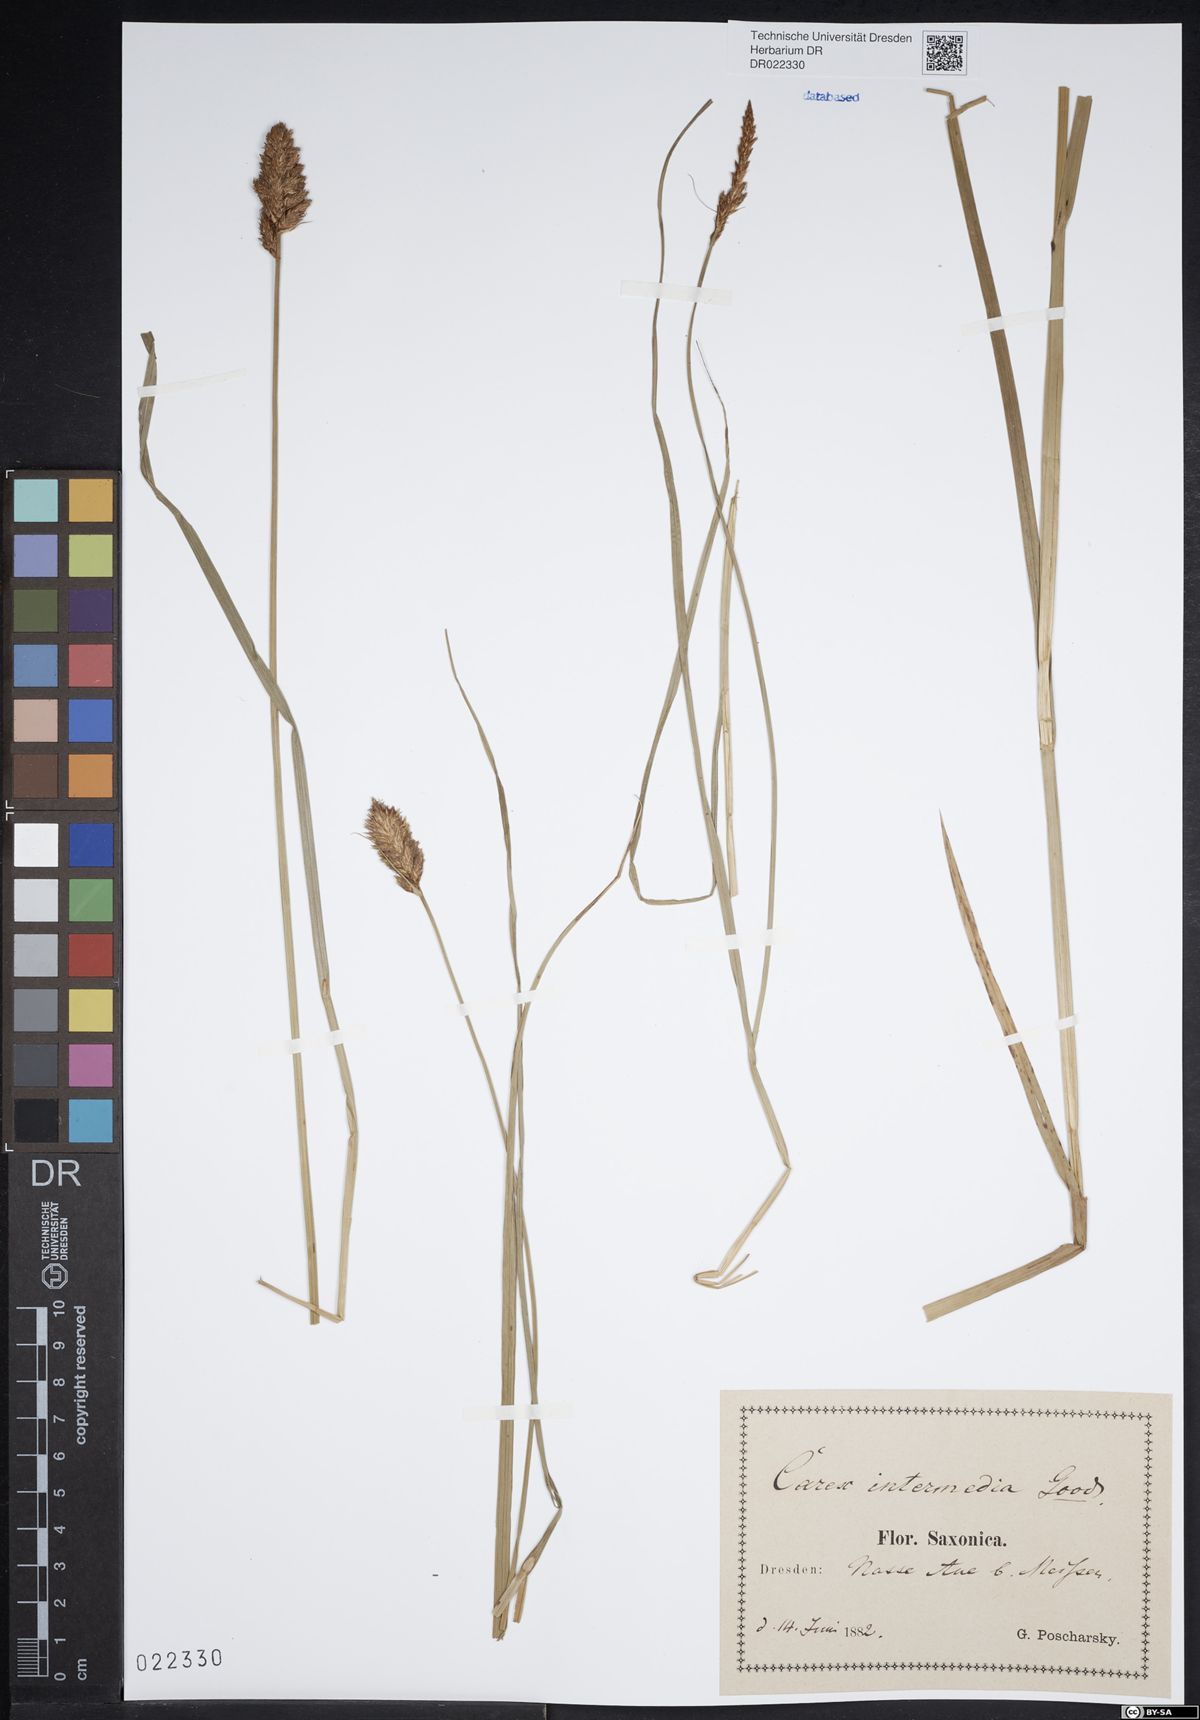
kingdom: Plantae
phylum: Tracheophyta
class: Liliopsida
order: Poales
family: Cyperaceae
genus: Carex
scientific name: Carex disticha
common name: Brown sedge
